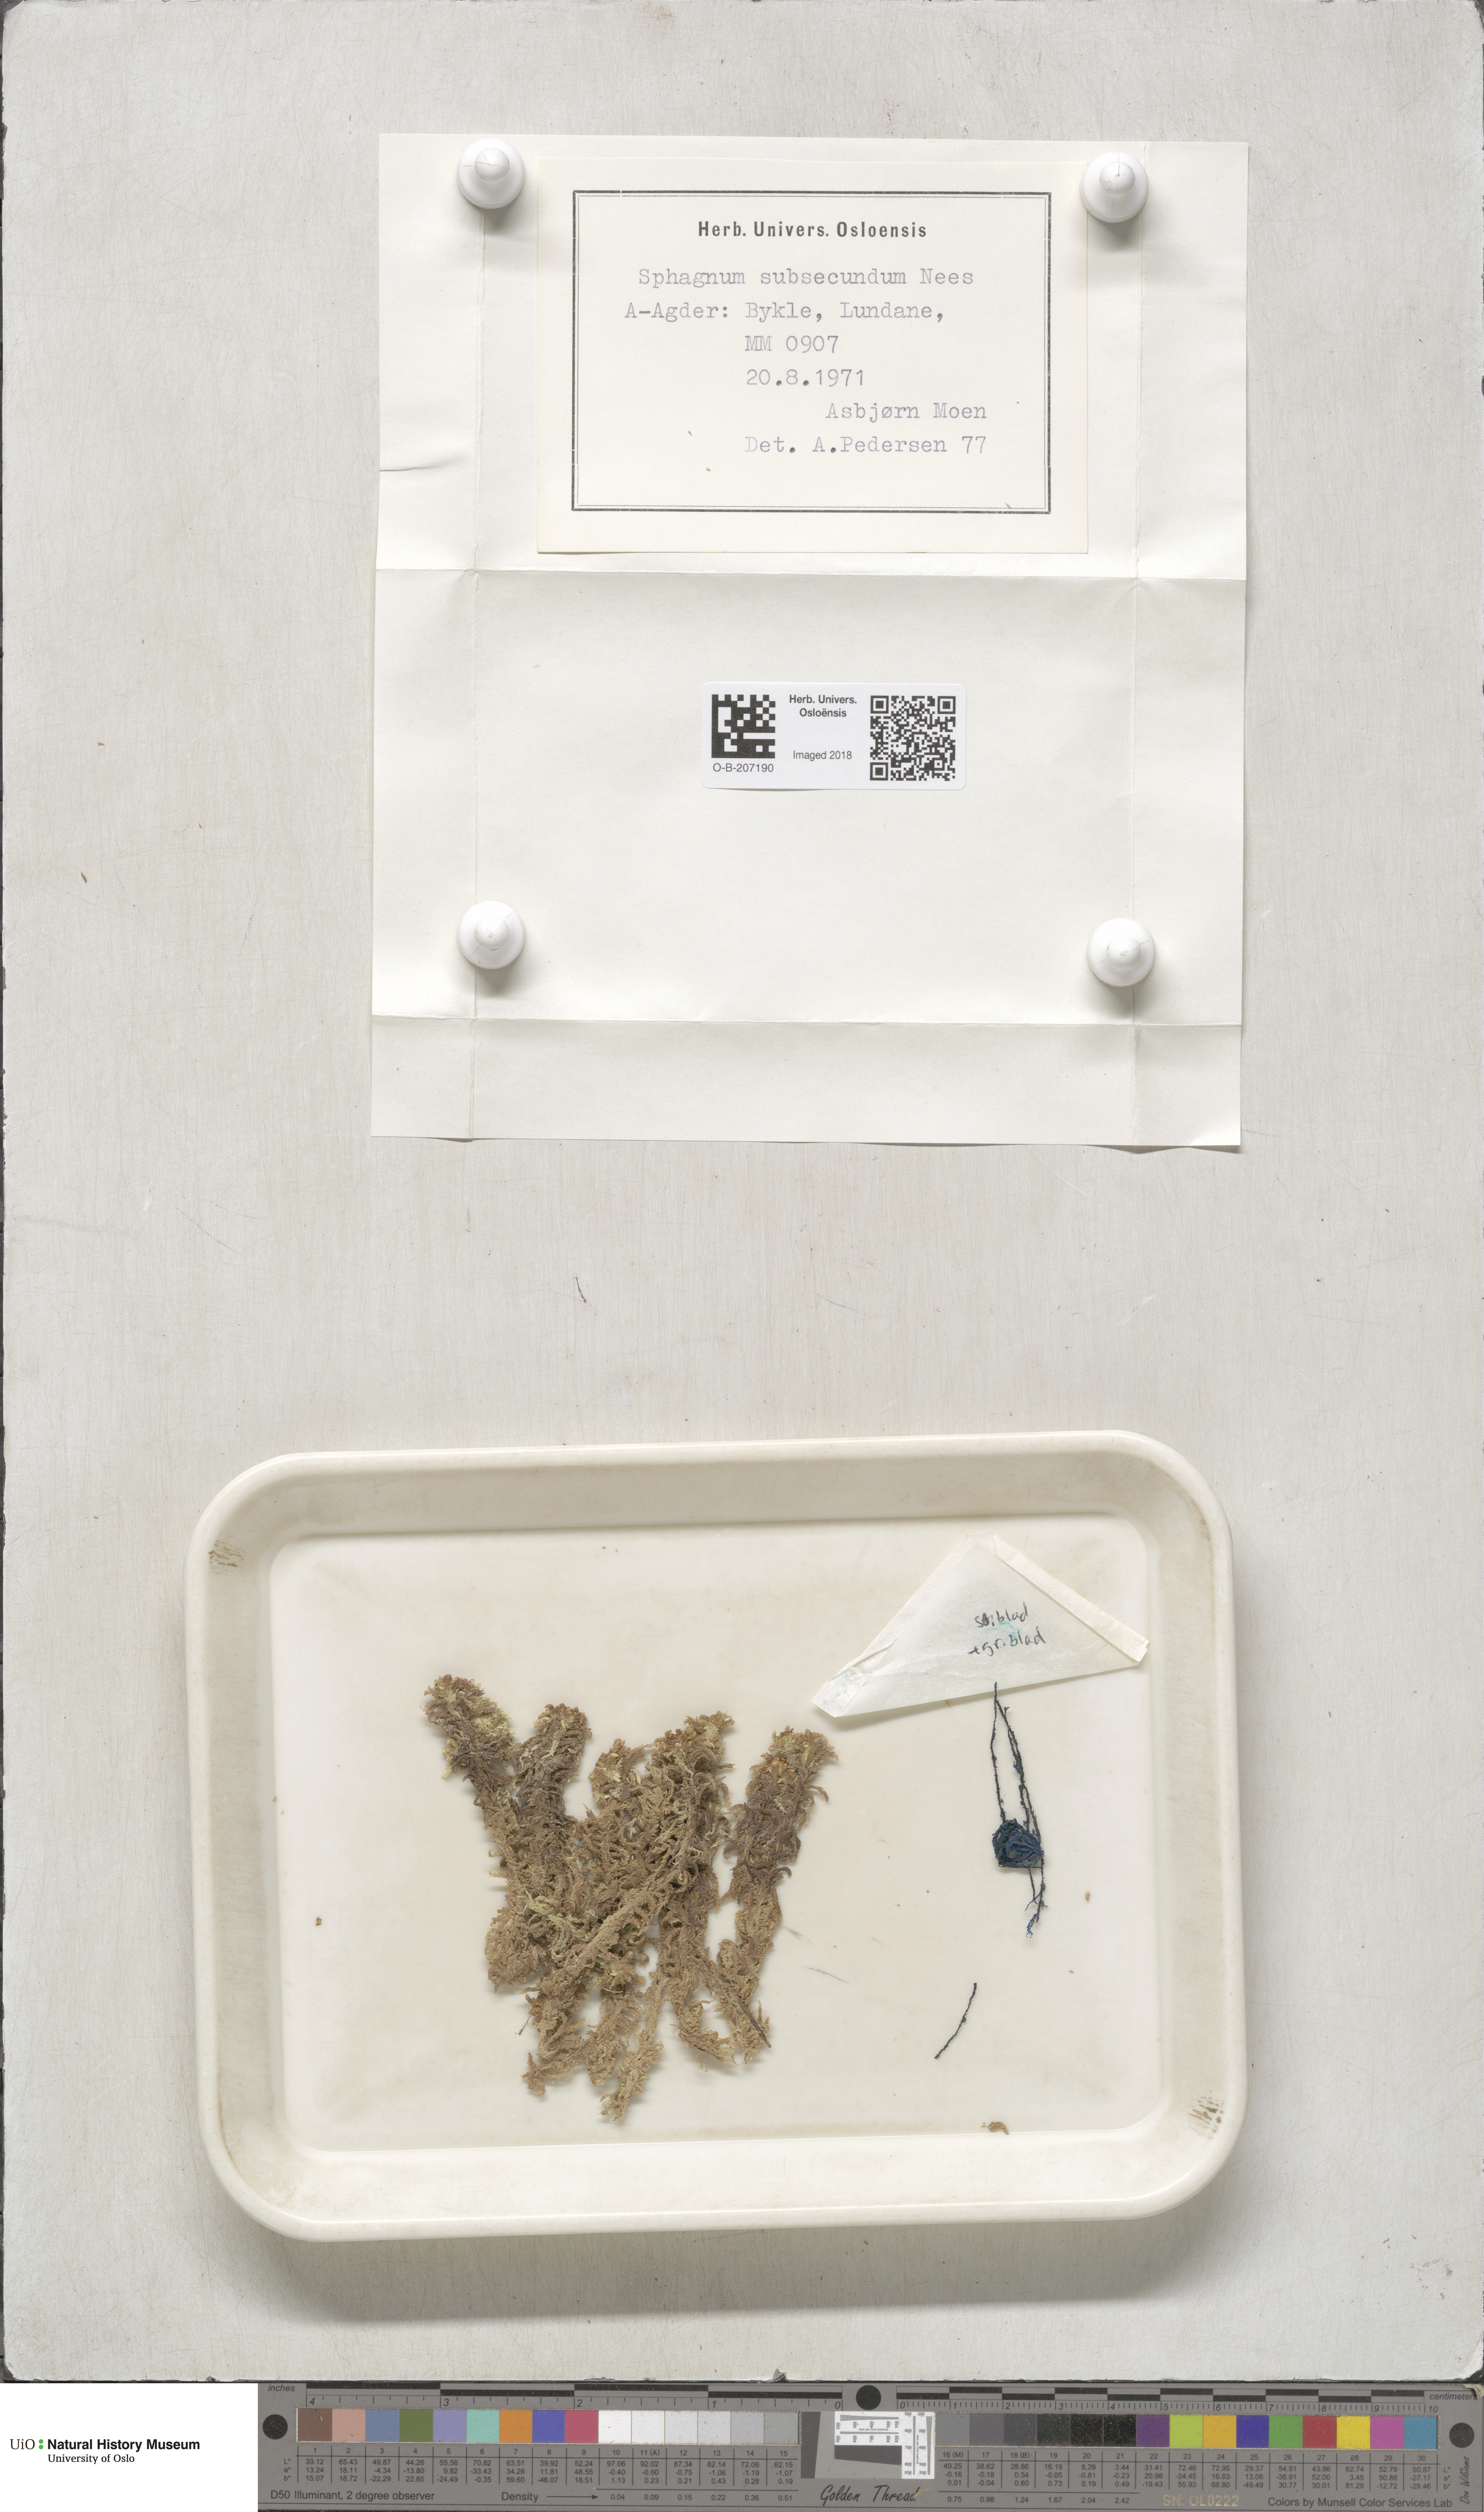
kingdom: Plantae
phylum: Bryophyta
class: Sphagnopsida
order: Sphagnales
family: Sphagnaceae
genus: Sphagnum
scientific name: Sphagnum subsecundum
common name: Orange peat moss
